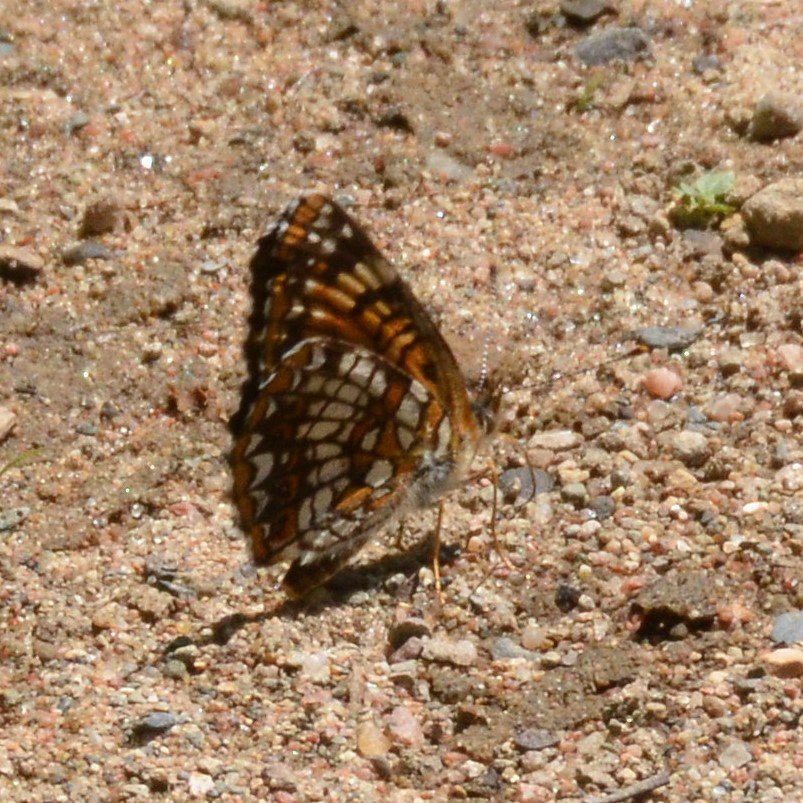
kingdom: Animalia
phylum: Arthropoda
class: Insecta
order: Lepidoptera
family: Nymphalidae
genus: Chlosyne
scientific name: Chlosyne harrisii
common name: Harris's Checkerspot
